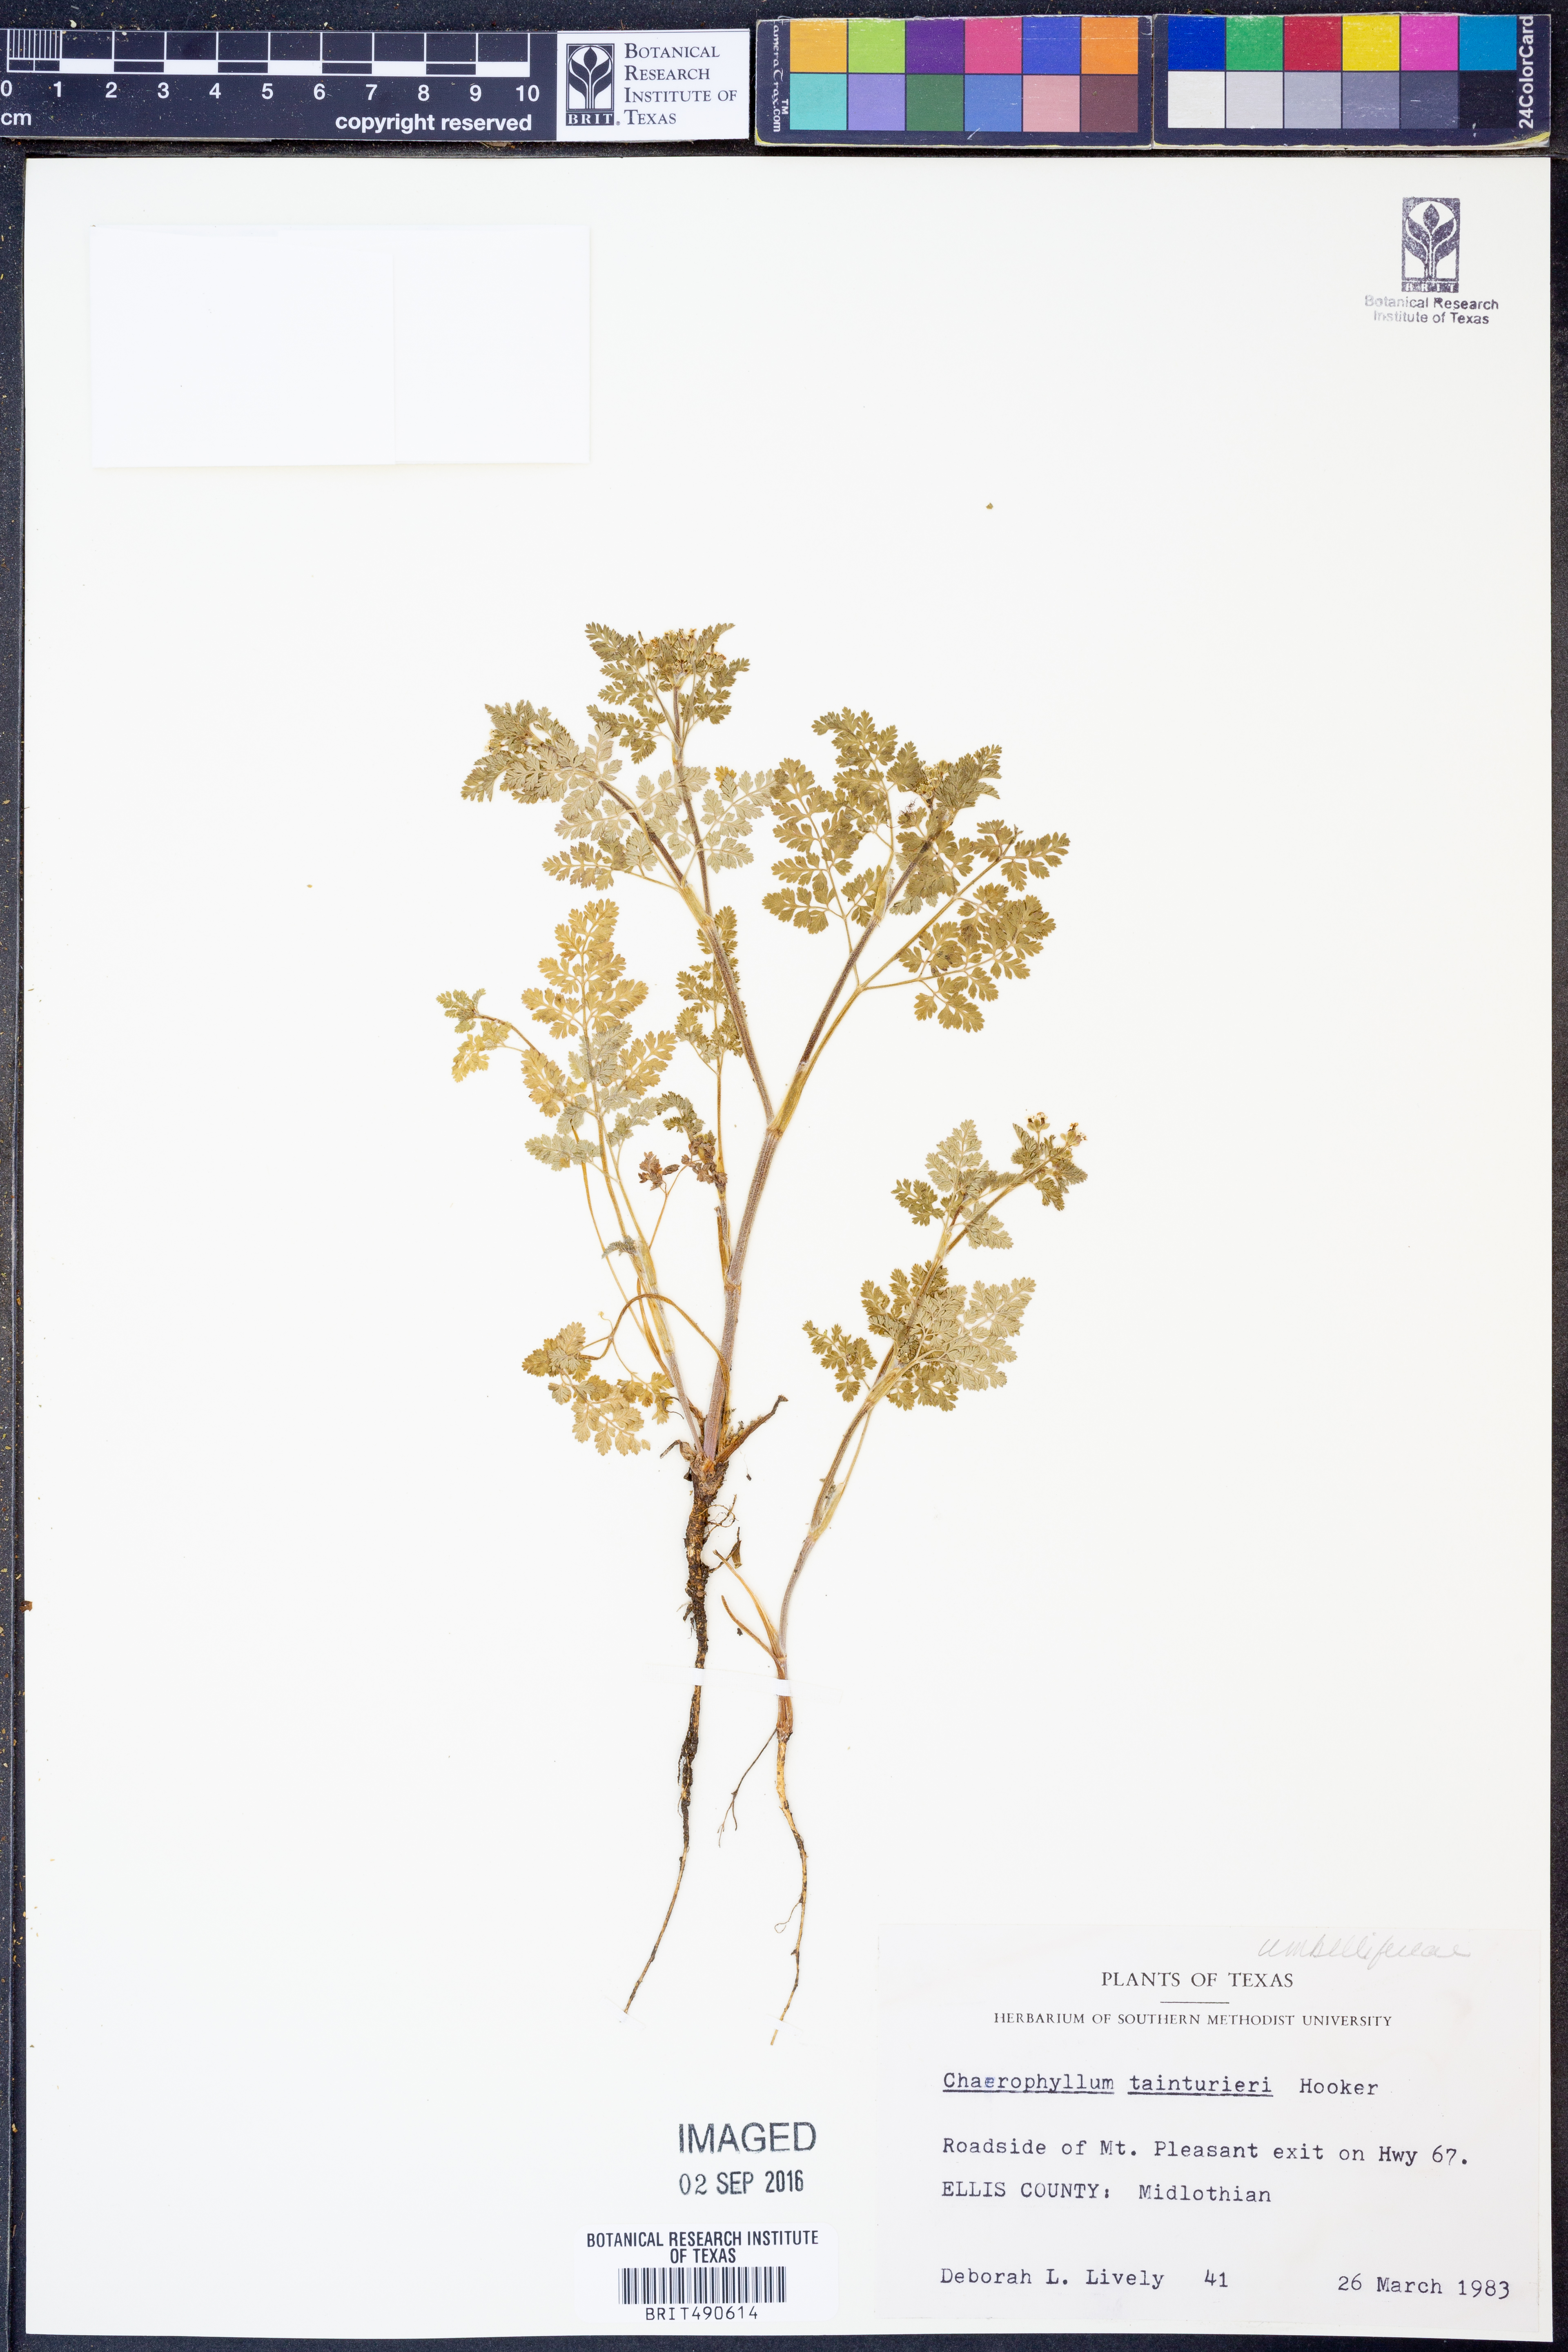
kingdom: Plantae
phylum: Tracheophyta
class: Magnoliopsida
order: Apiales
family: Apiaceae
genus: Chaerophyllum
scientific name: Chaerophyllum tainturieri
